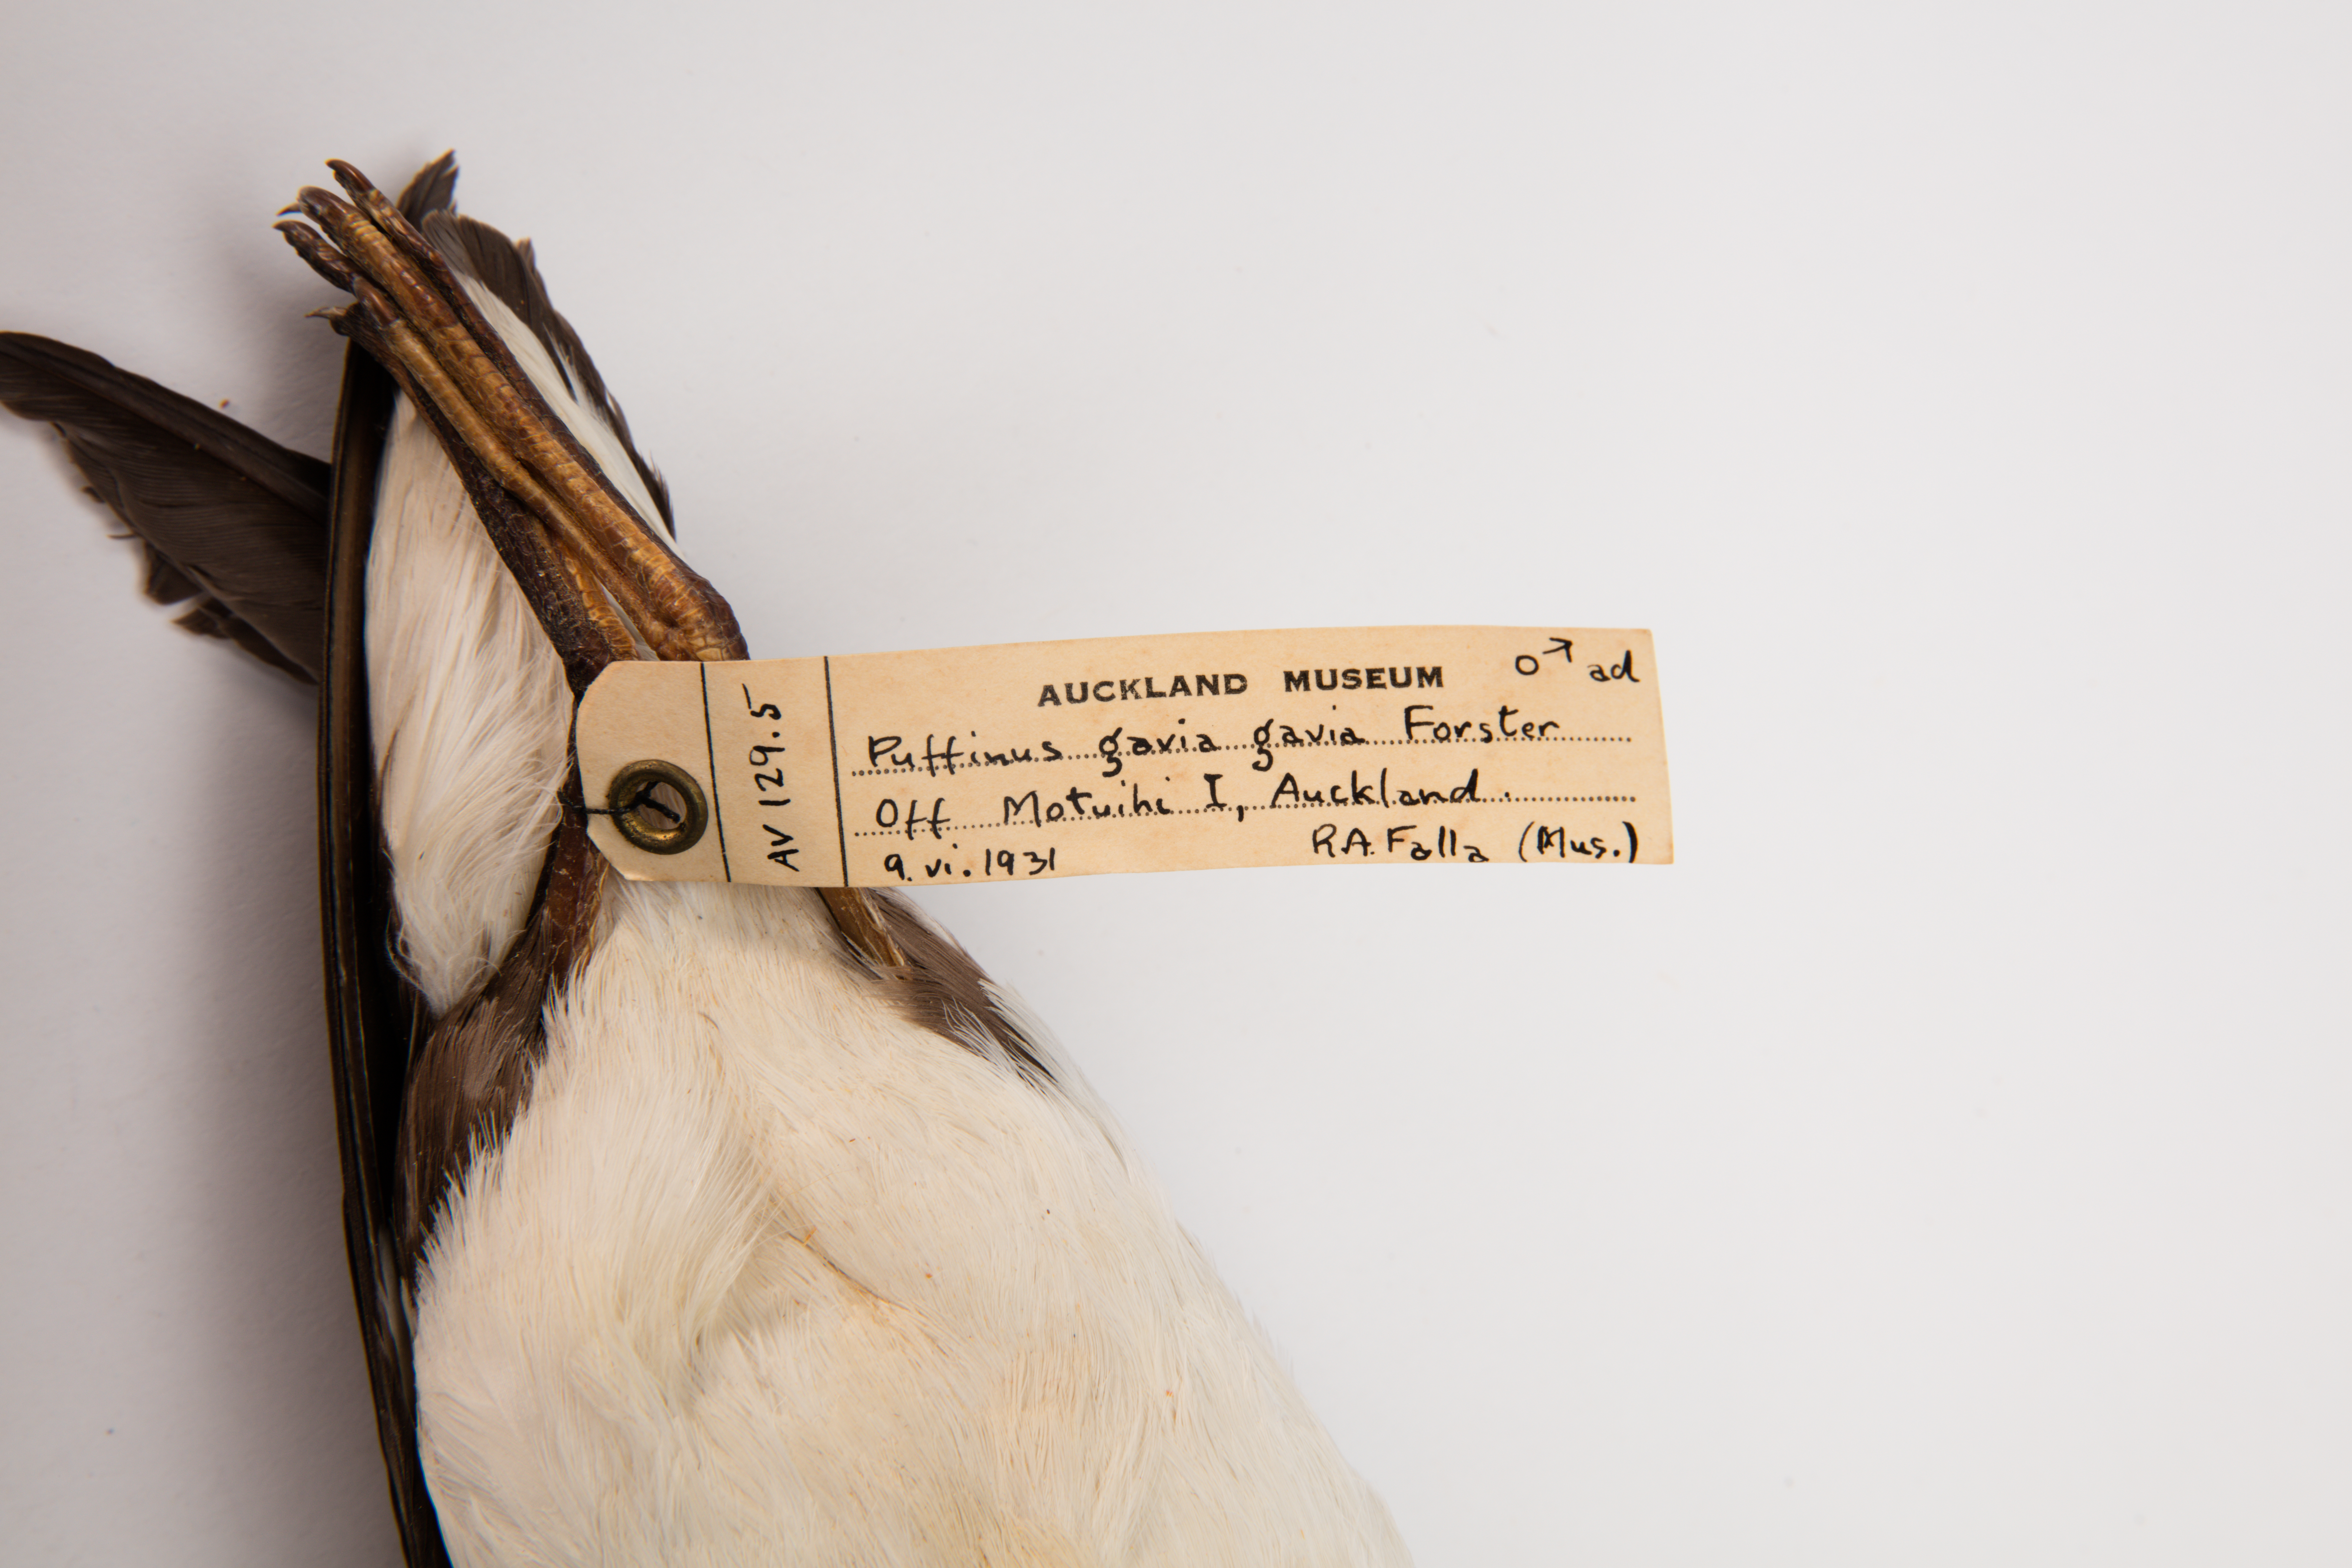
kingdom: Animalia
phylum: Chordata
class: Aves
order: Procellariiformes
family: Procellariidae
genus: Ardenna
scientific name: Ardenna
